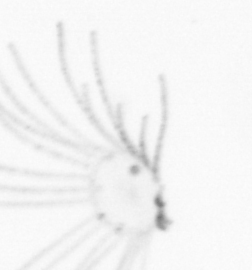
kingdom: Animalia
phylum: Cnidaria
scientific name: Cnidaria
